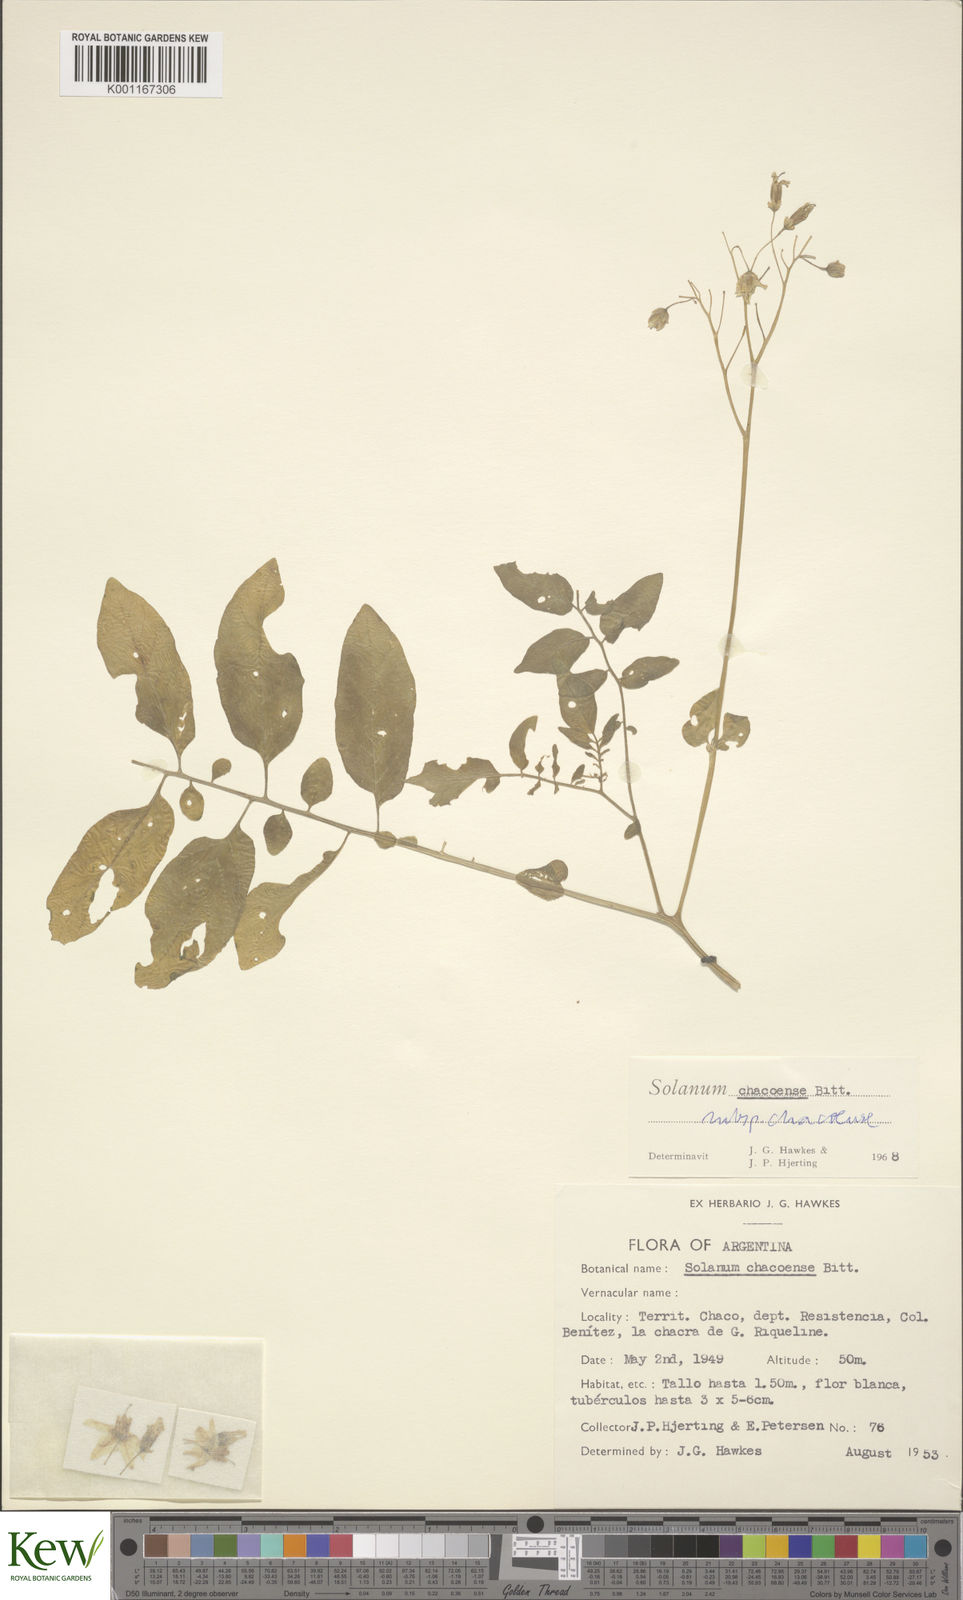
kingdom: Plantae
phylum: Tracheophyta
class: Magnoliopsida
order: Solanales
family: Solanaceae
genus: Solanum
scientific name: Solanum chacoense
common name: Chaco potato
